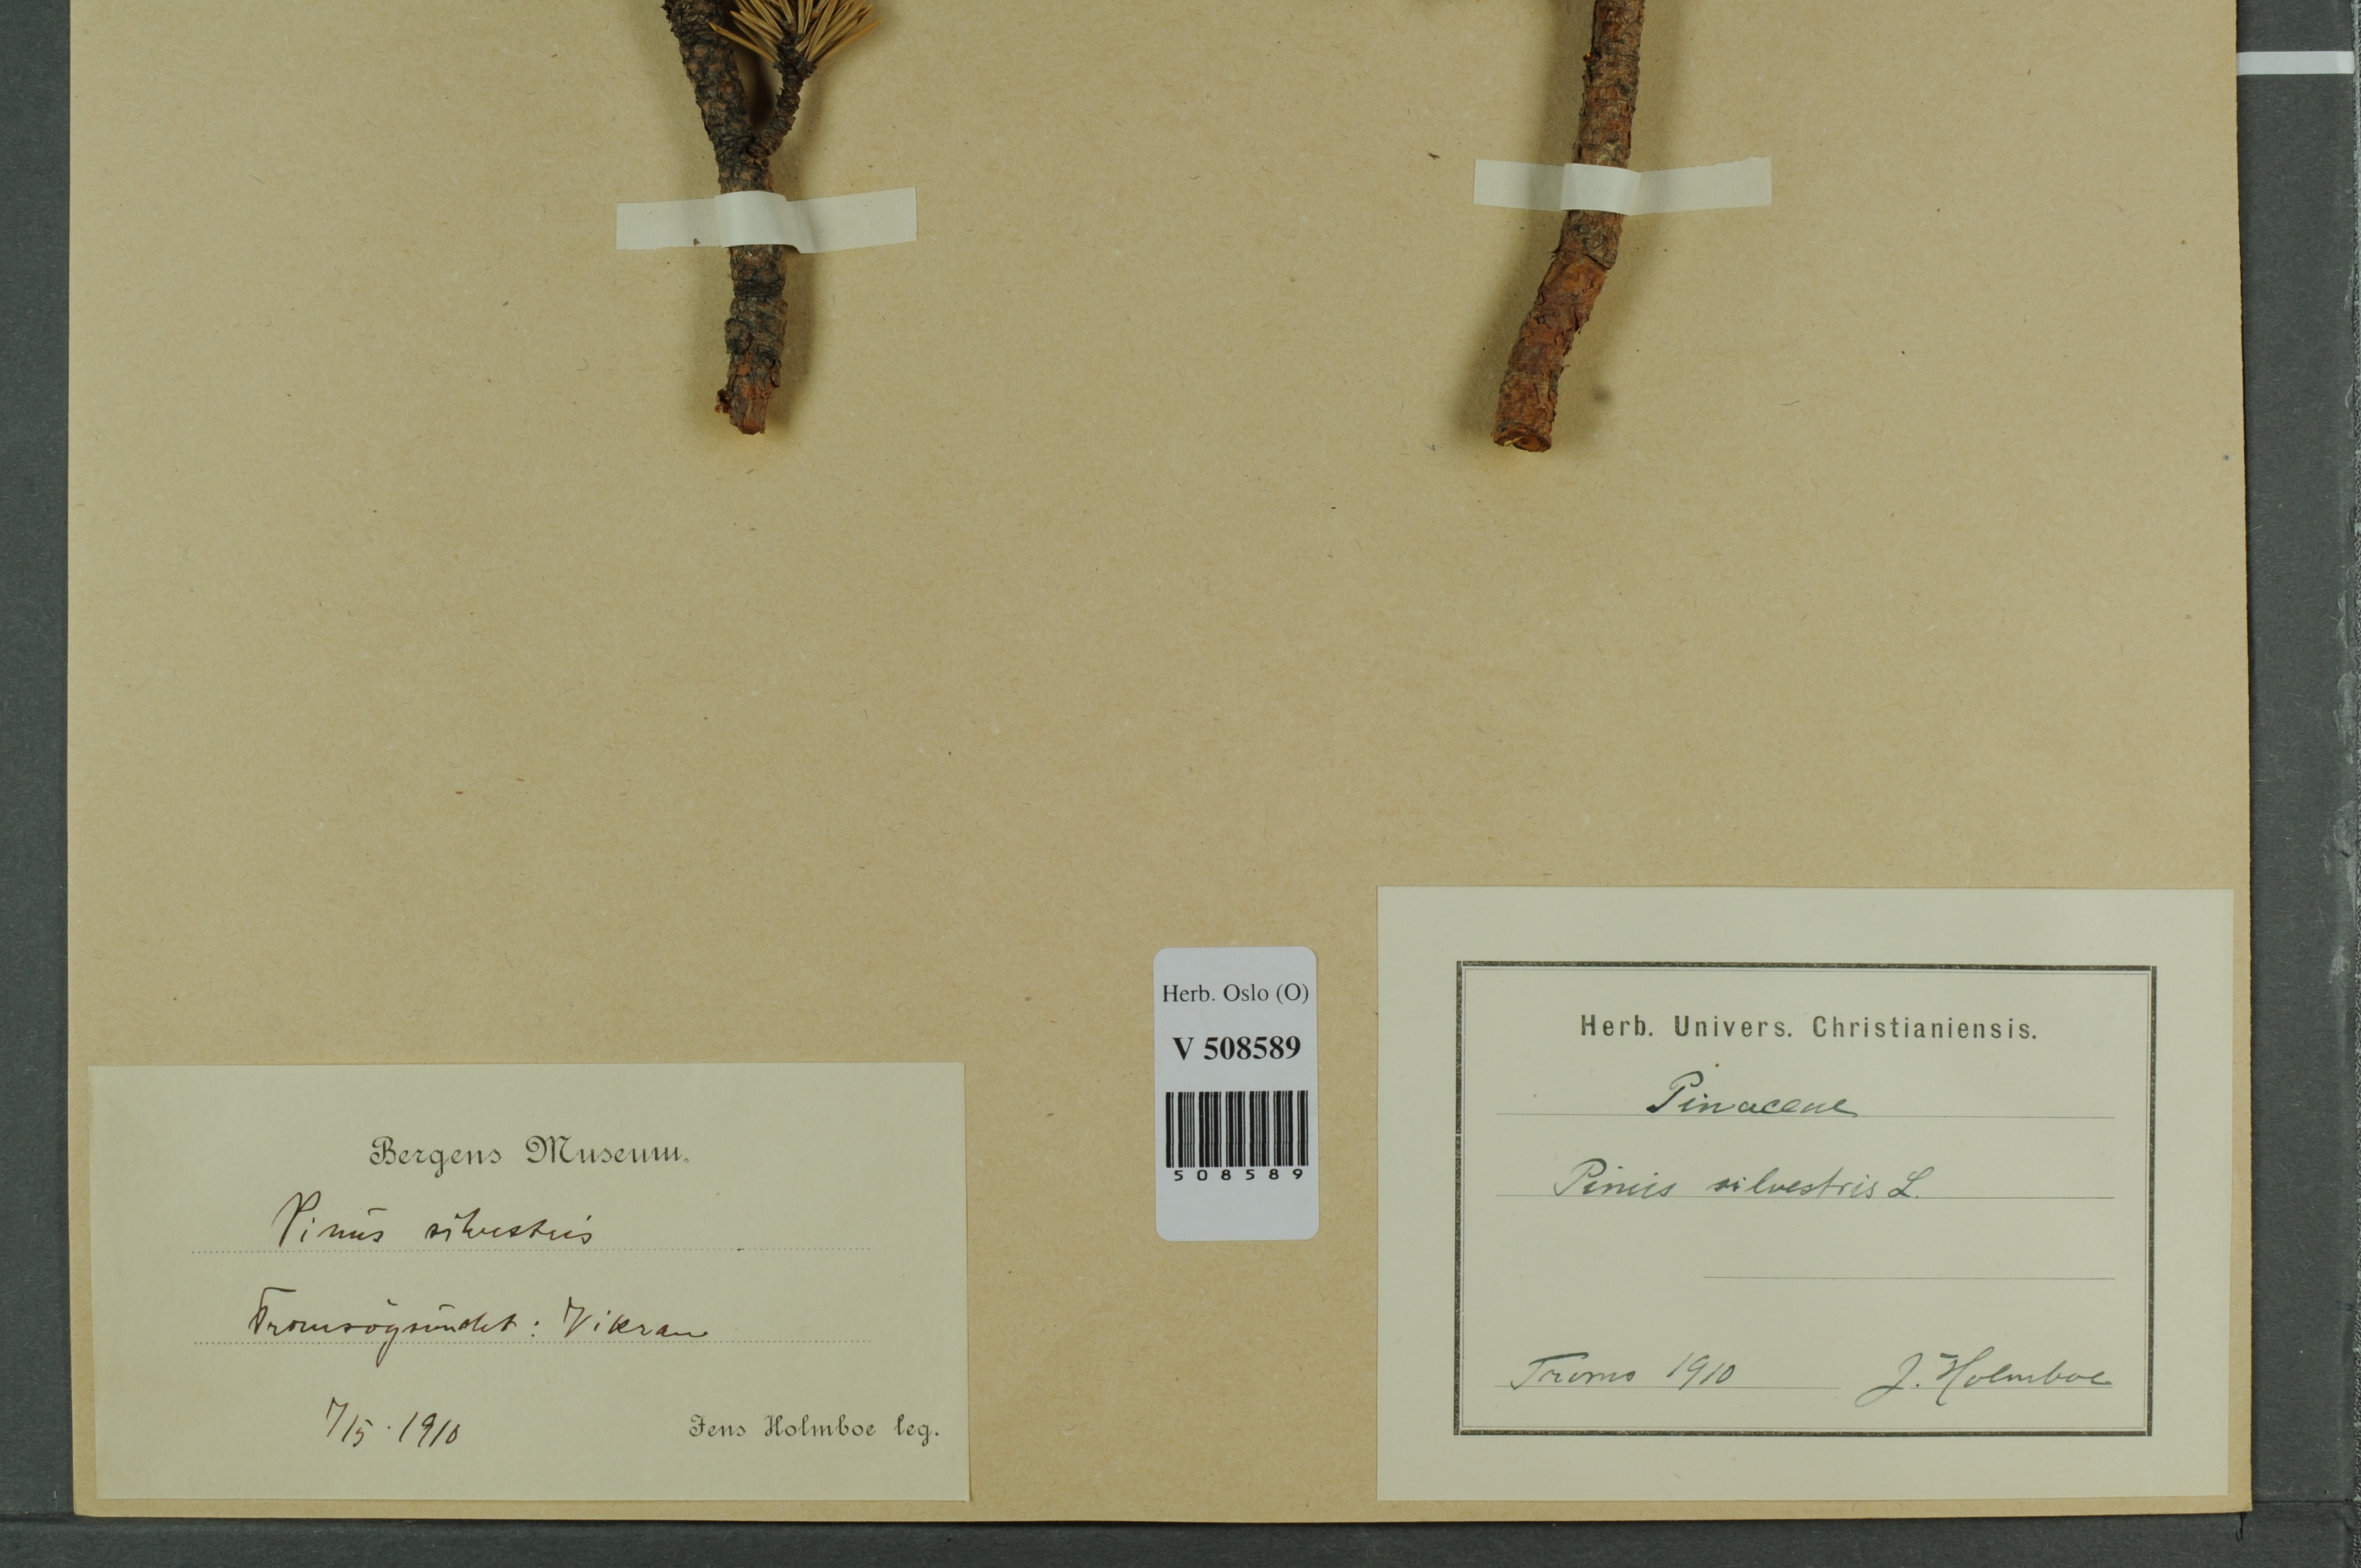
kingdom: Plantae
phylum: Tracheophyta
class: Pinopsida
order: Pinales
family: Pinaceae
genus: Pinus
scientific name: Pinus sylvestris
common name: Scots pine
